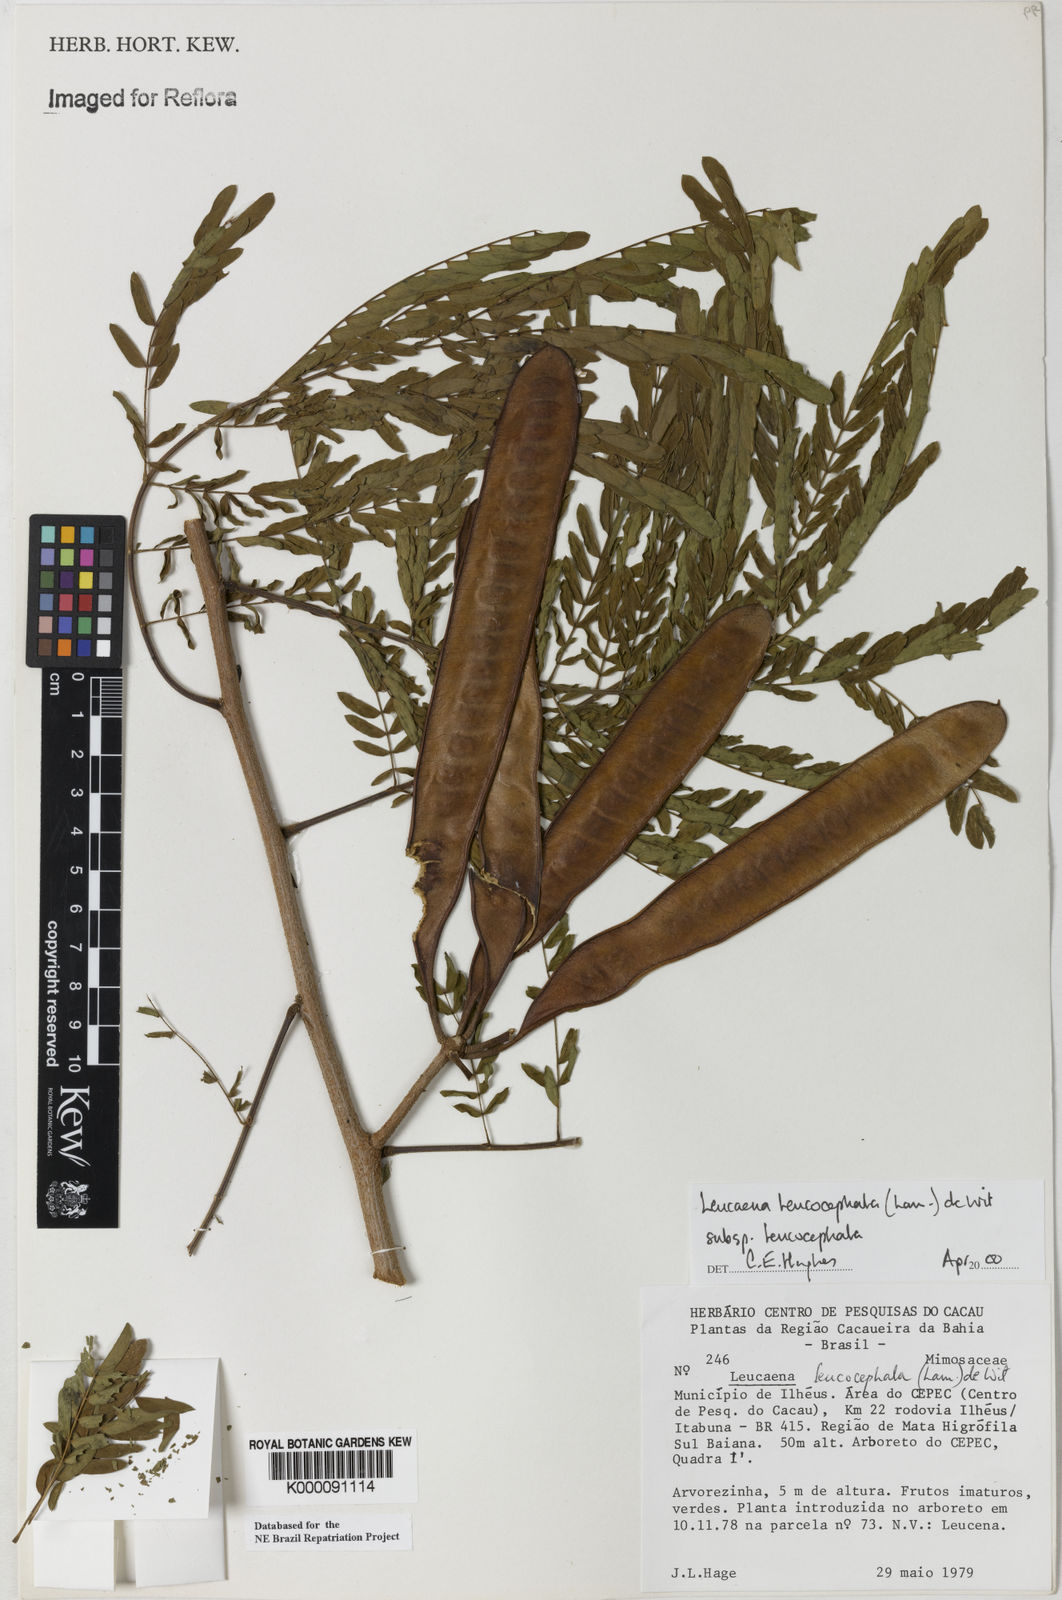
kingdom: Plantae
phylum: Tracheophyta
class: Magnoliopsida
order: Fabales
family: Fabaceae
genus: Leucaena
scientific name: Leucaena leucocephala
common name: White leadtree
